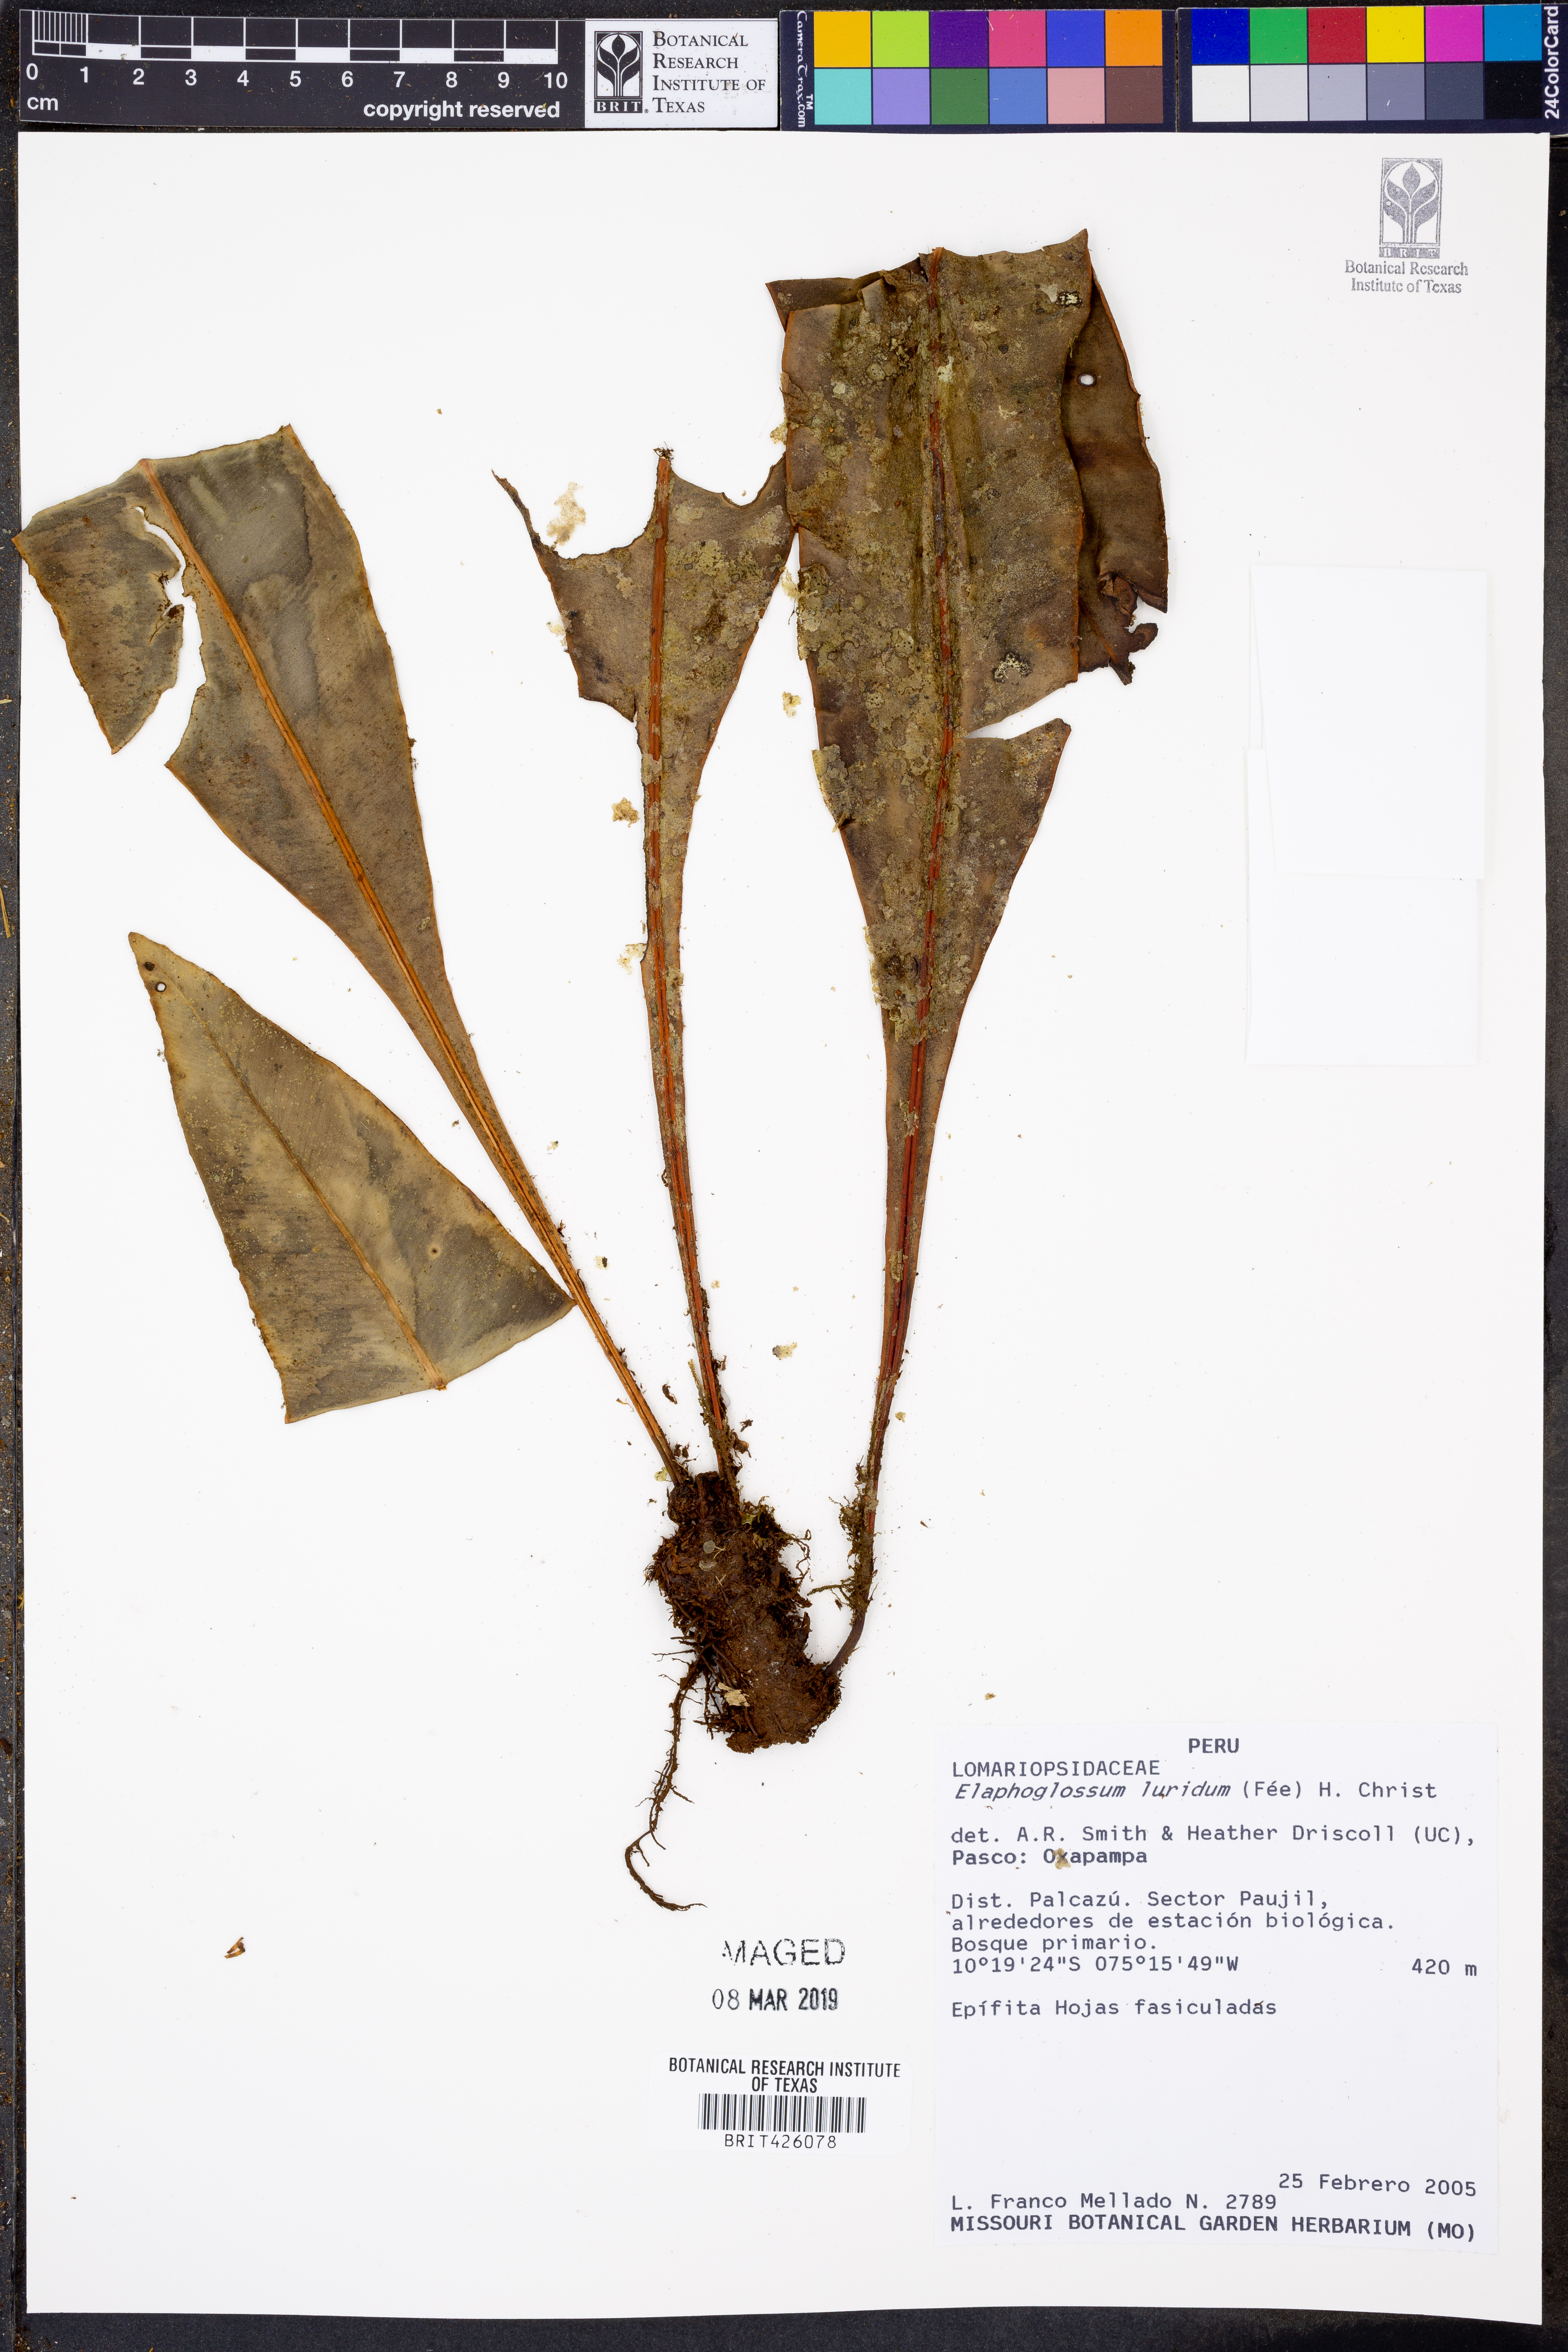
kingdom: Plantae
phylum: Tracheophyta
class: Polypodiopsida
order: Polypodiales
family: Dryopteridaceae
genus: Elaphoglossum
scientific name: Elaphoglossum luridum
